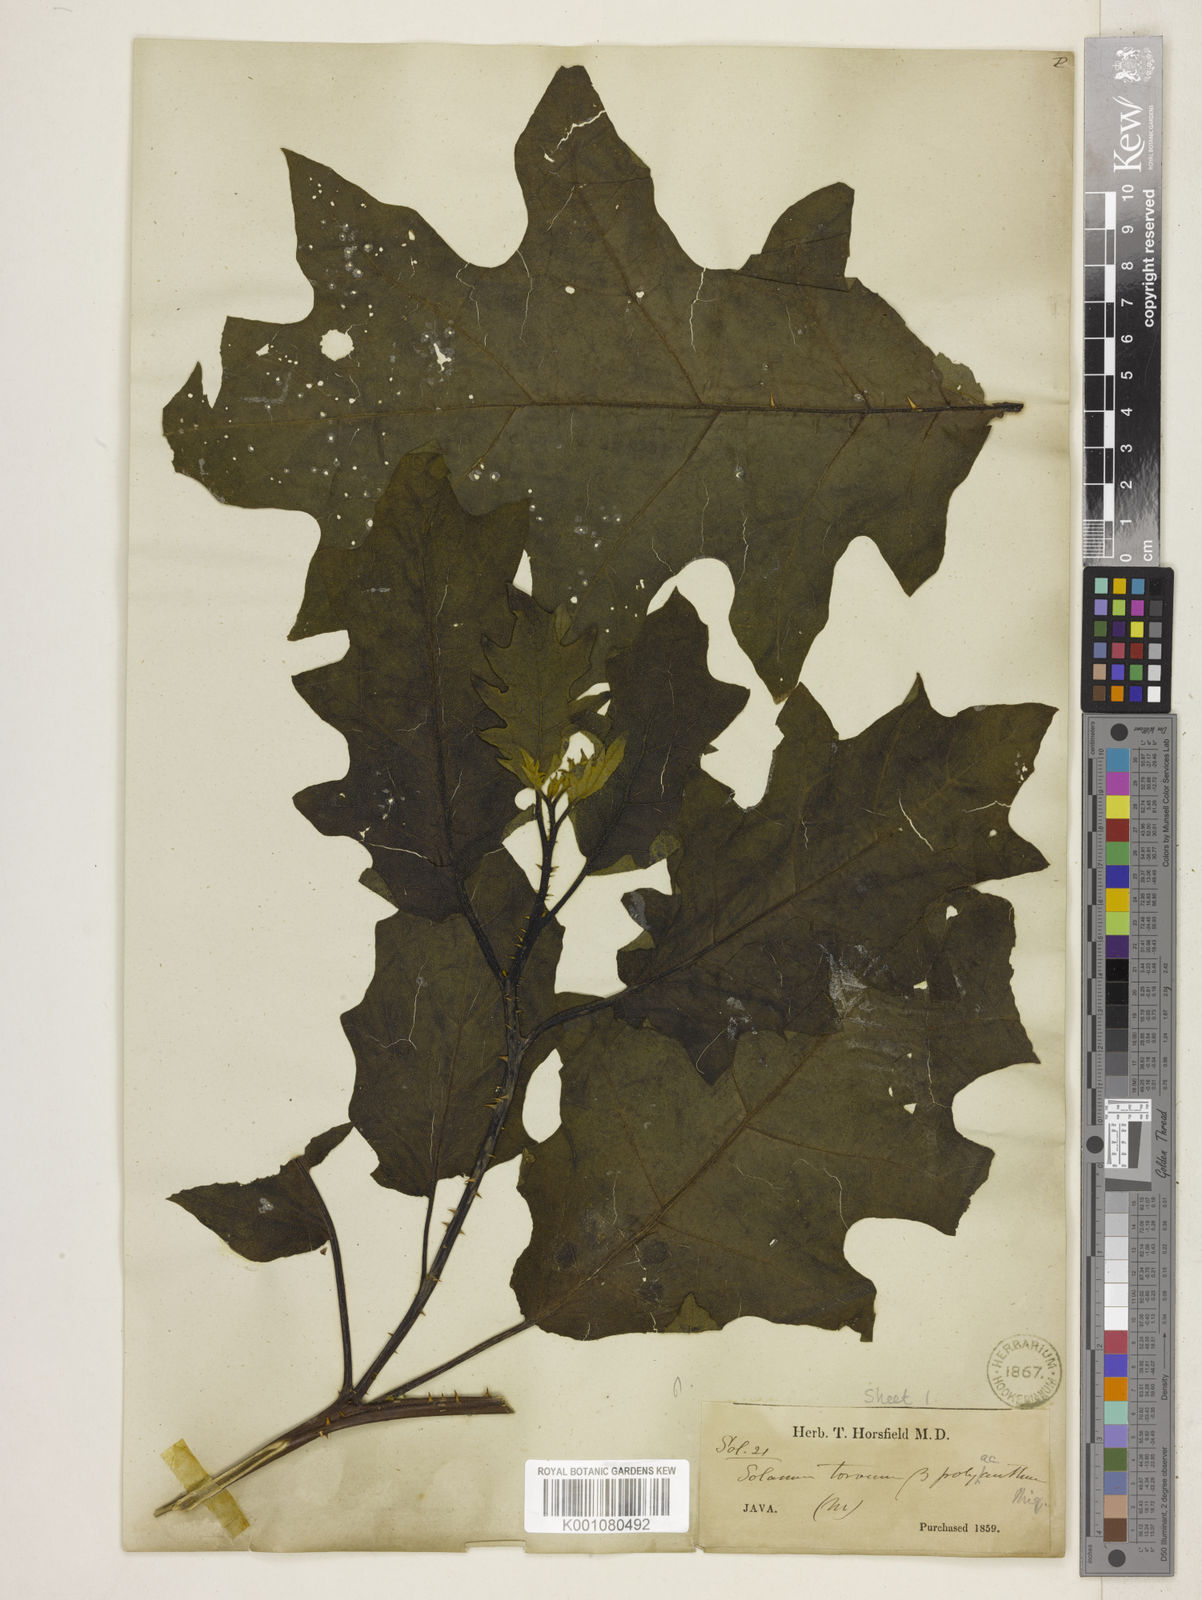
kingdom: Plantae
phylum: Tracheophyta
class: Magnoliopsida
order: Solanales
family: Solanaceae
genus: Solanum
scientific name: Solanum torvum
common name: Turkey berry
